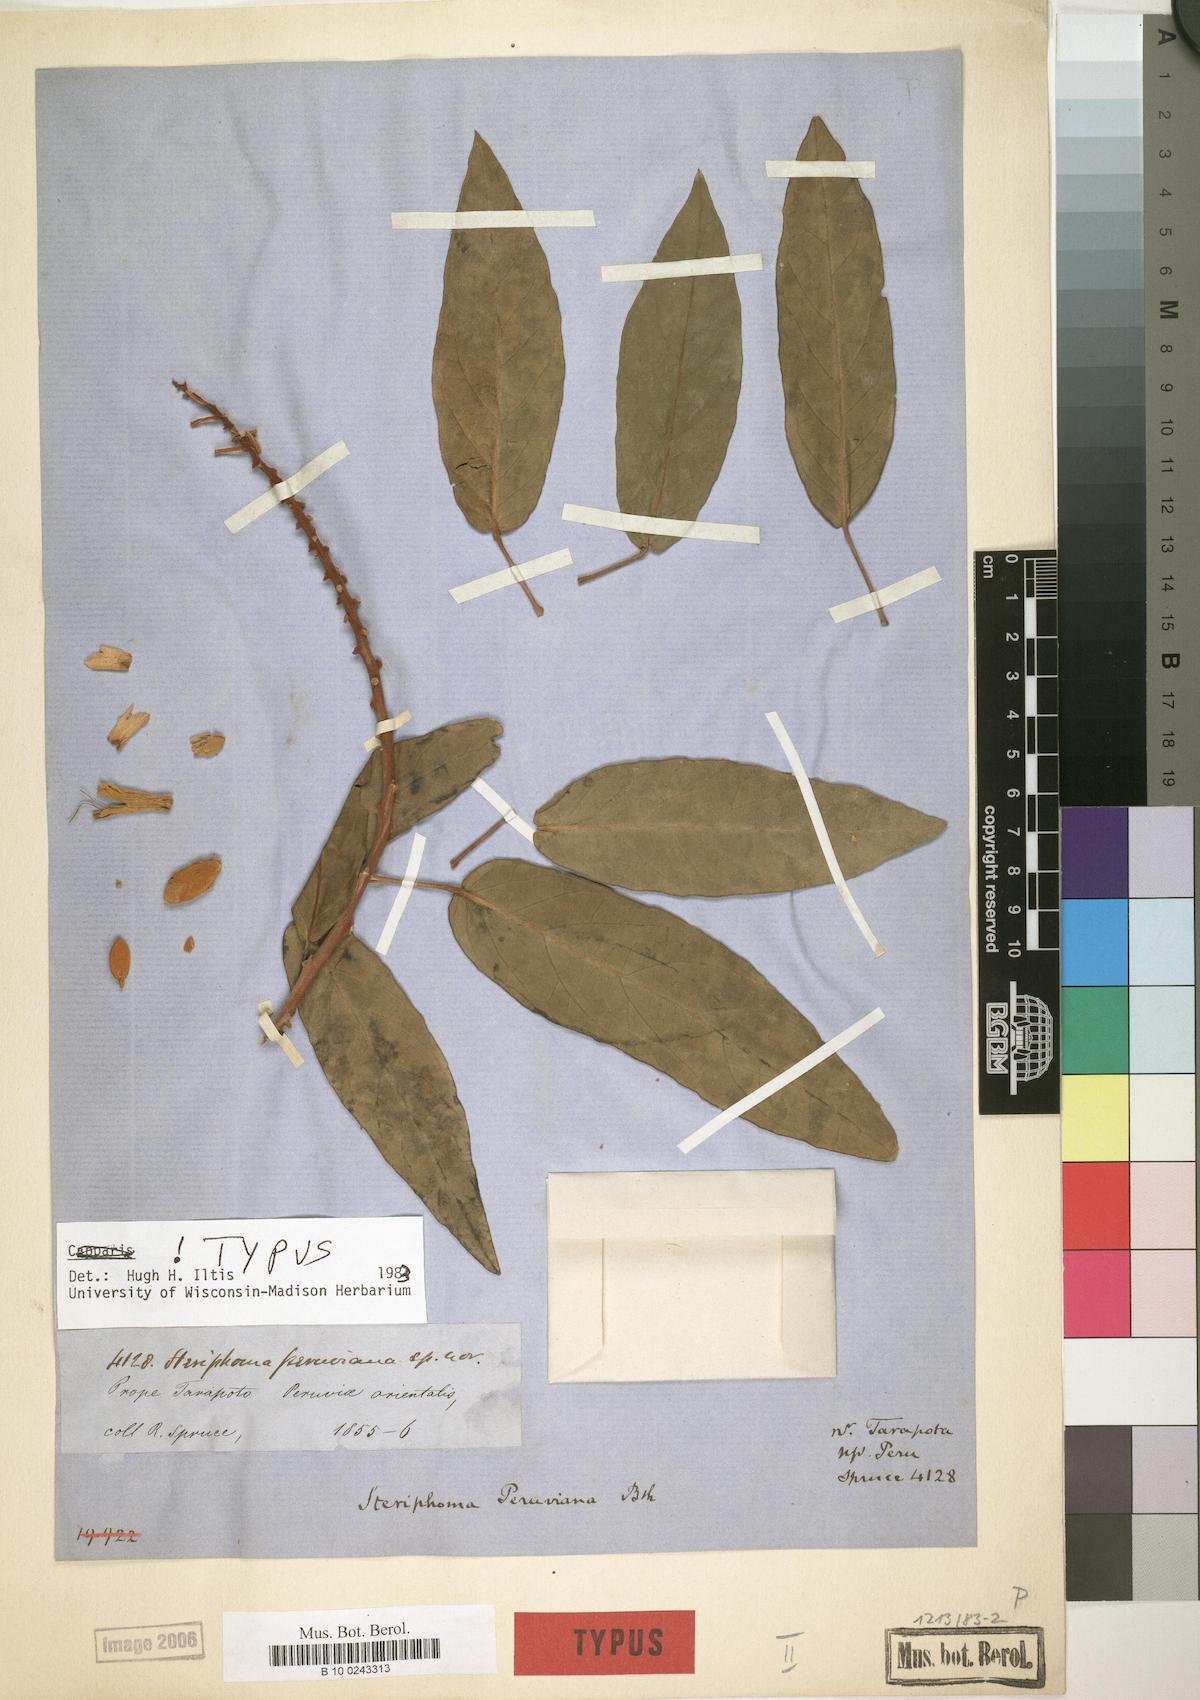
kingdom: Plantae
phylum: Tracheophyta
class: Magnoliopsida
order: Brassicales
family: Capparaceae
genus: Steriphoma
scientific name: Steriphoma peruvianum
